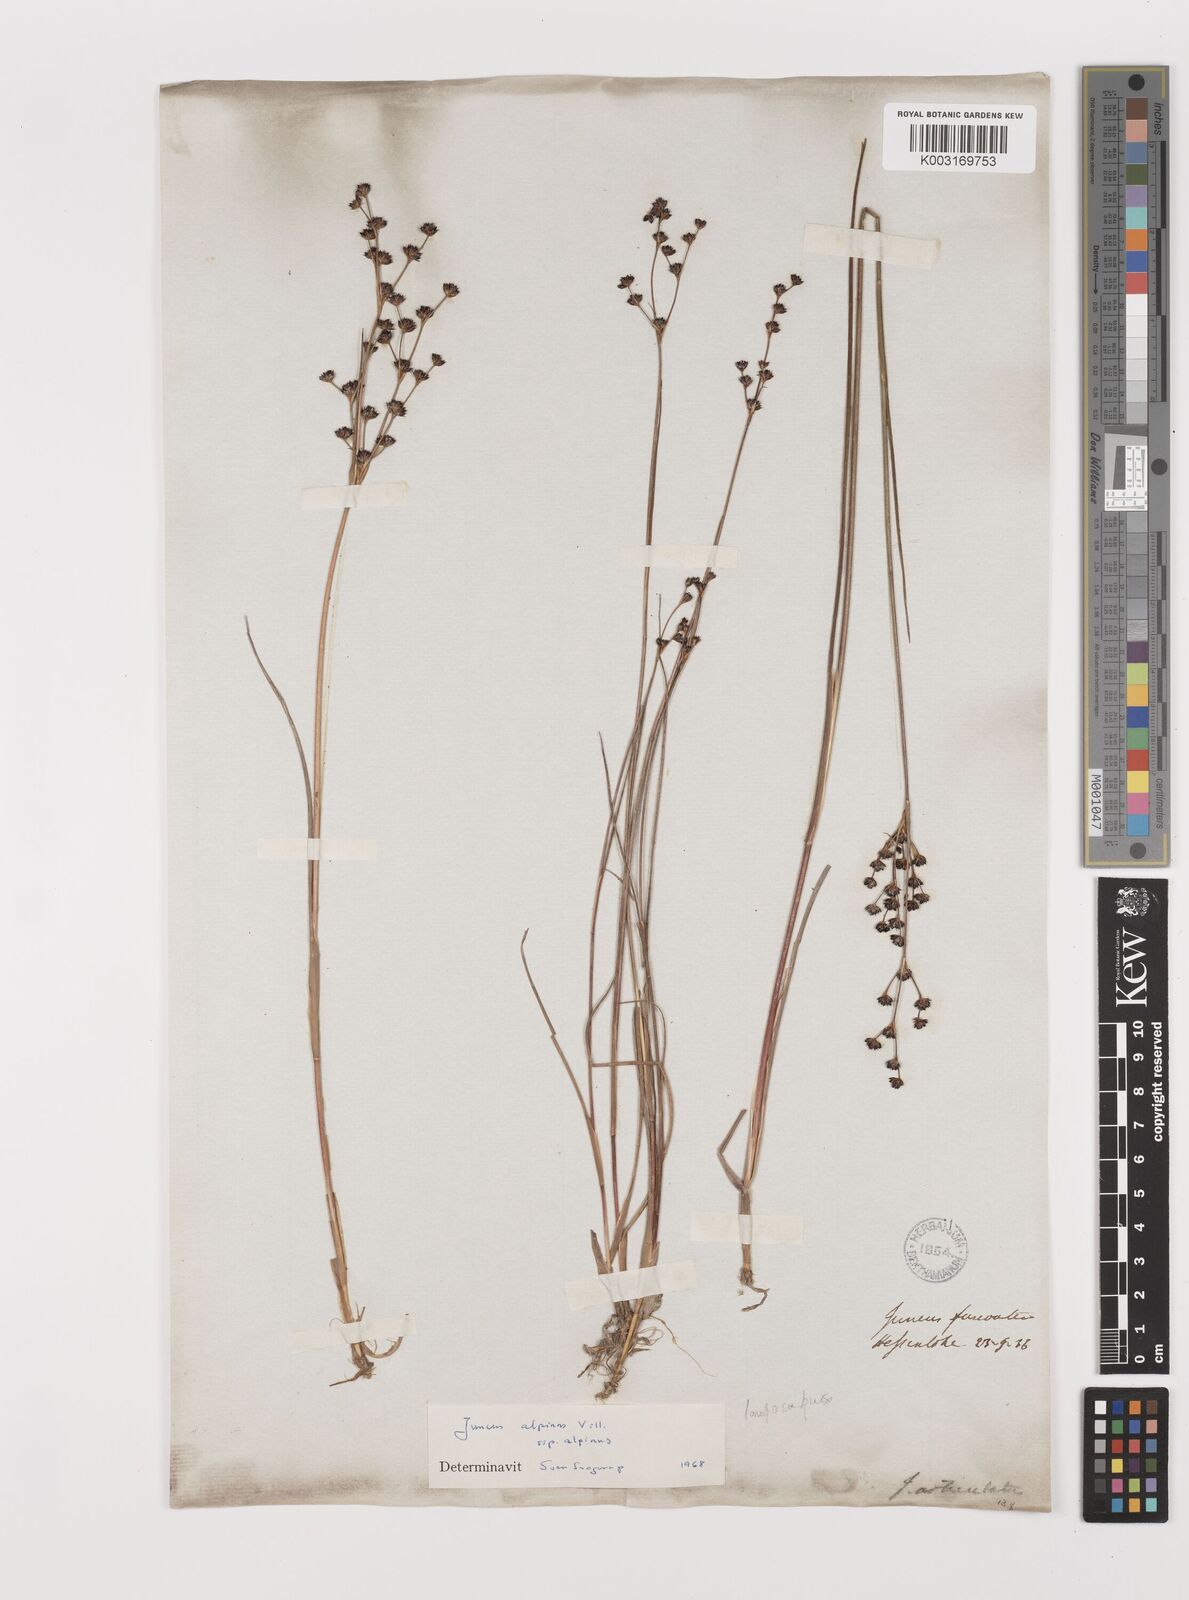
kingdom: Plantae
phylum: Tracheophyta
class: Liliopsida
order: Poales
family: Juncaceae
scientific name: Juncaceae
